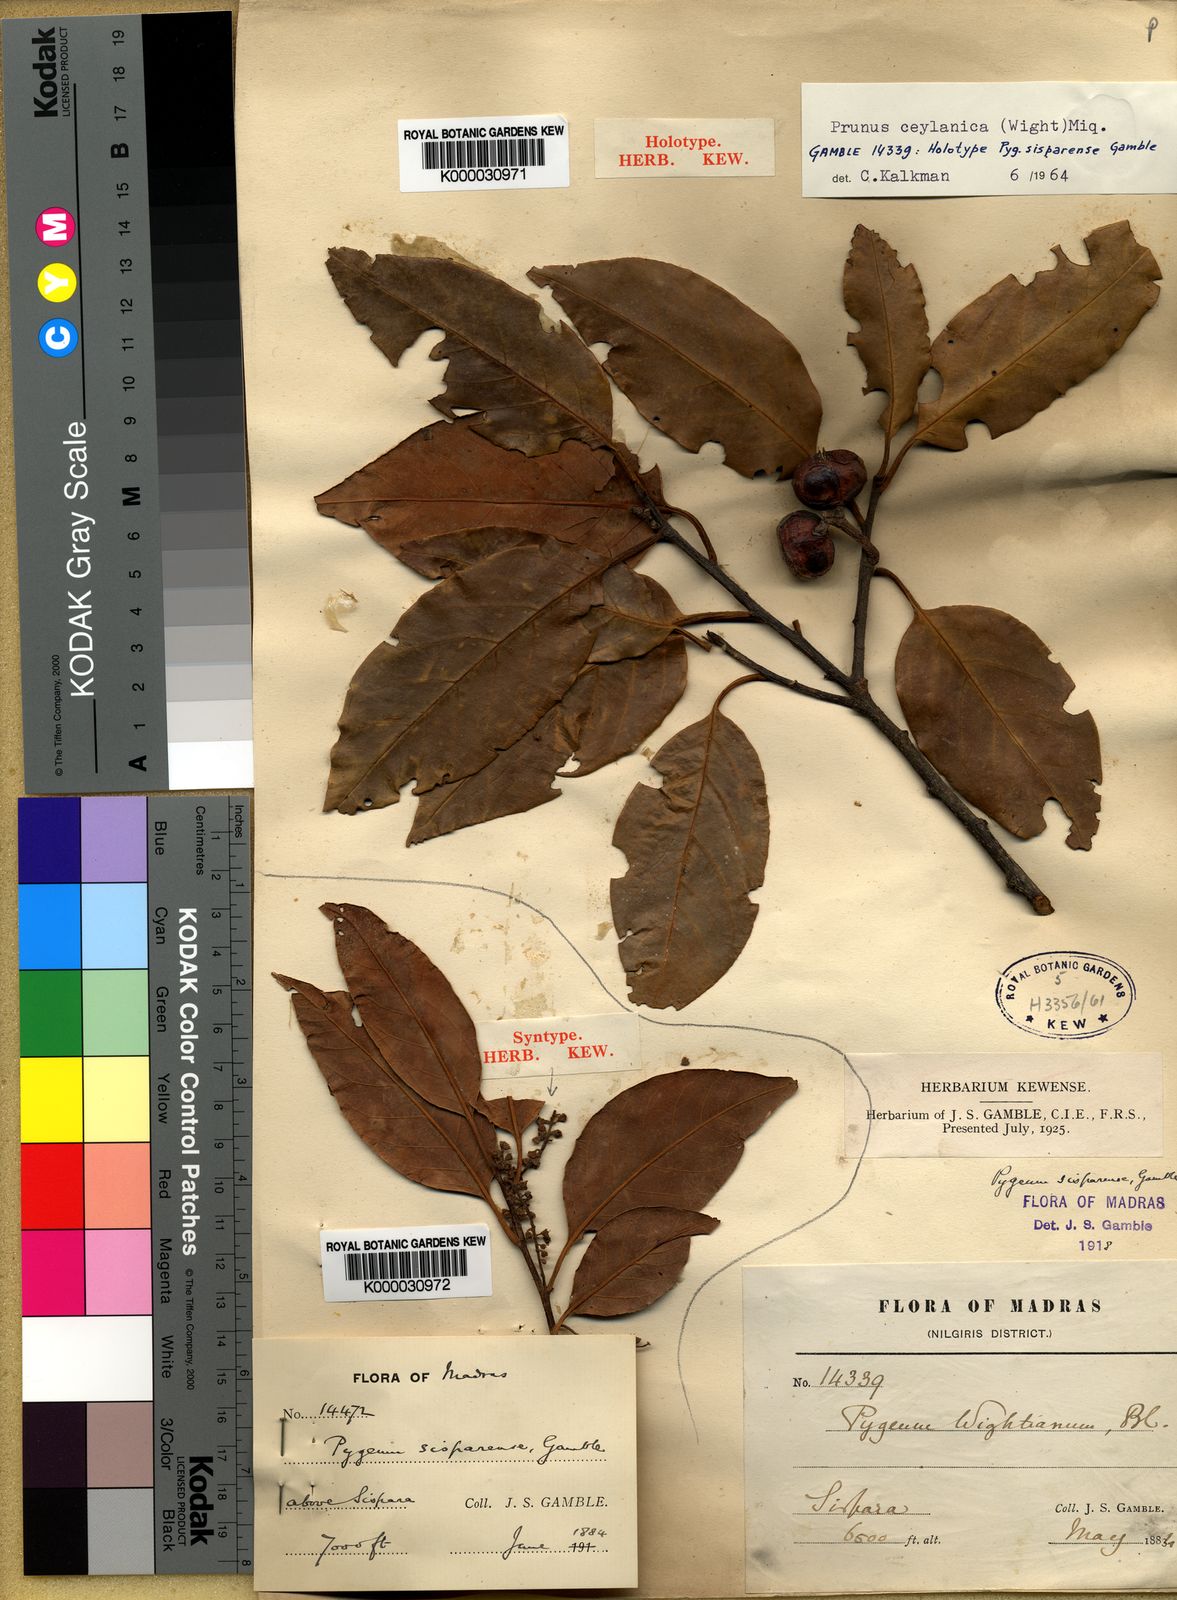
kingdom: Plantae
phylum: Tracheophyta
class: Magnoliopsida
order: Rosales
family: Rosaceae
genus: Prunus
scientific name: Prunus ceylanica
